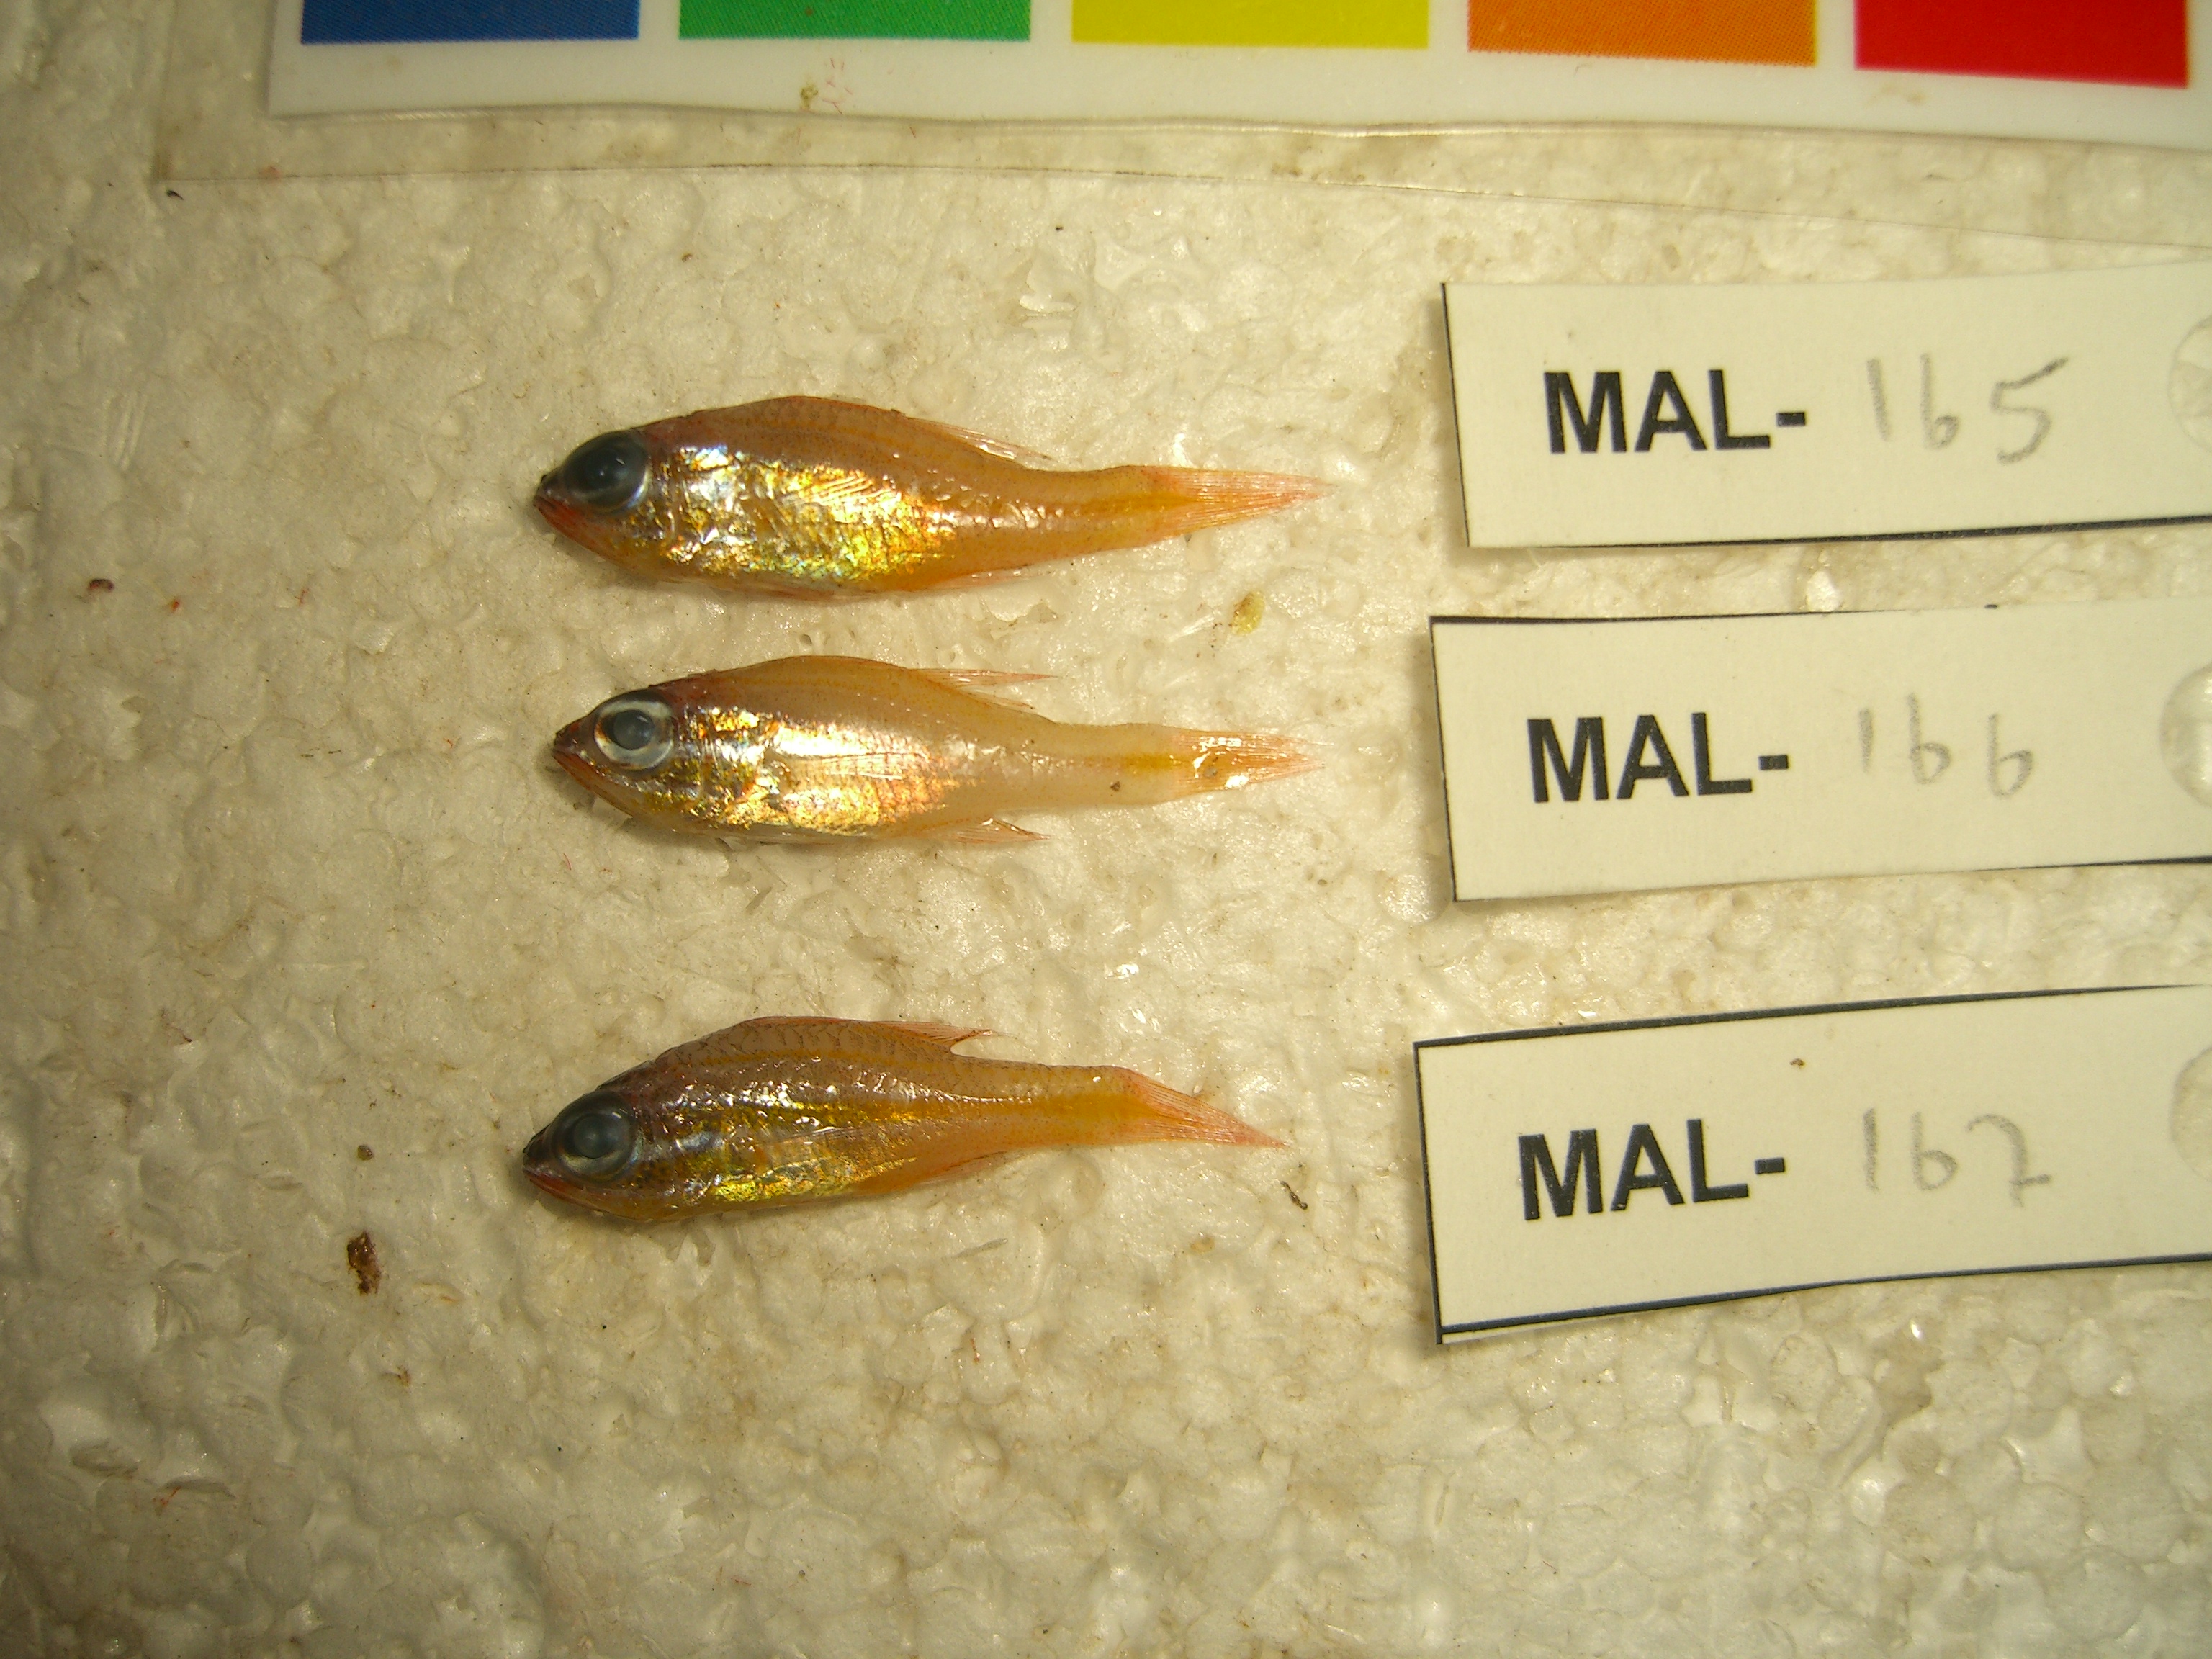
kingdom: Animalia
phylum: Chordata
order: Perciformes
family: Apogonidae
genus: Ostorhinchus
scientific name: Ostorhinchus
